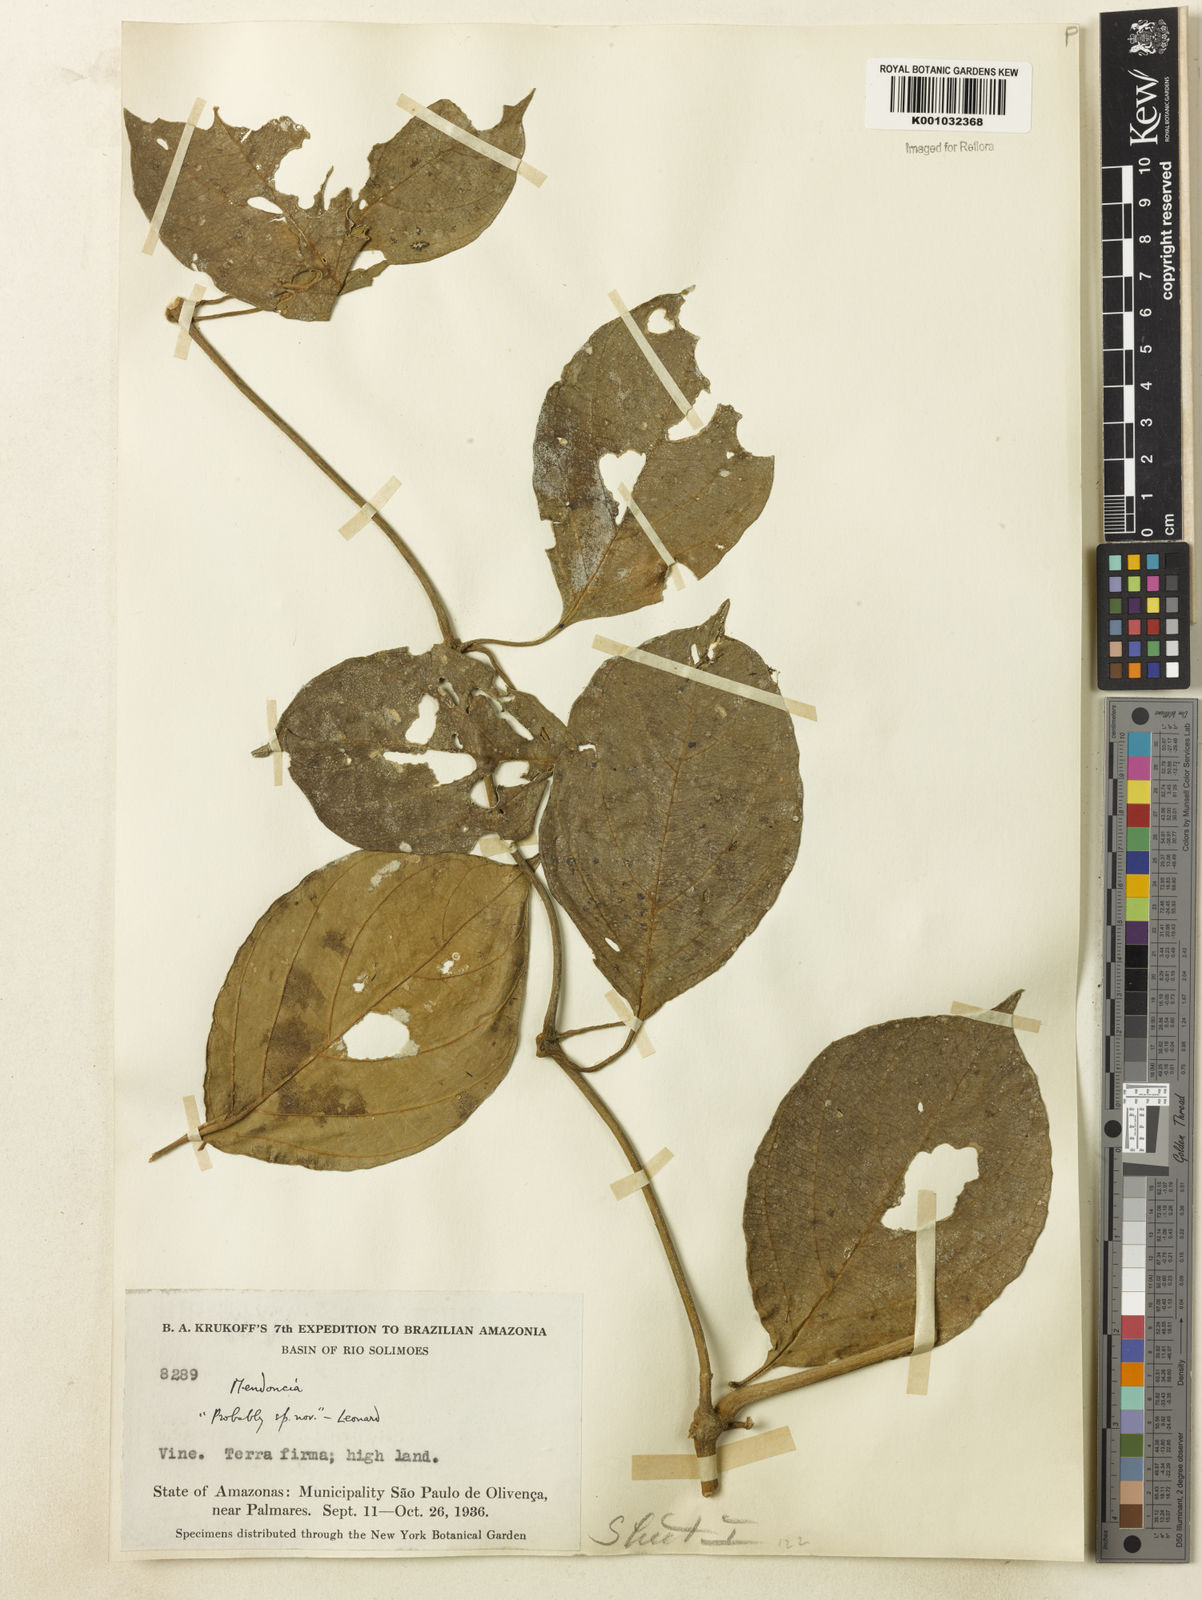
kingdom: Plantae
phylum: Tracheophyta
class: Magnoliopsida
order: Lamiales
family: Acanthaceae
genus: Mendoncia
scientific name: Mendoncia
